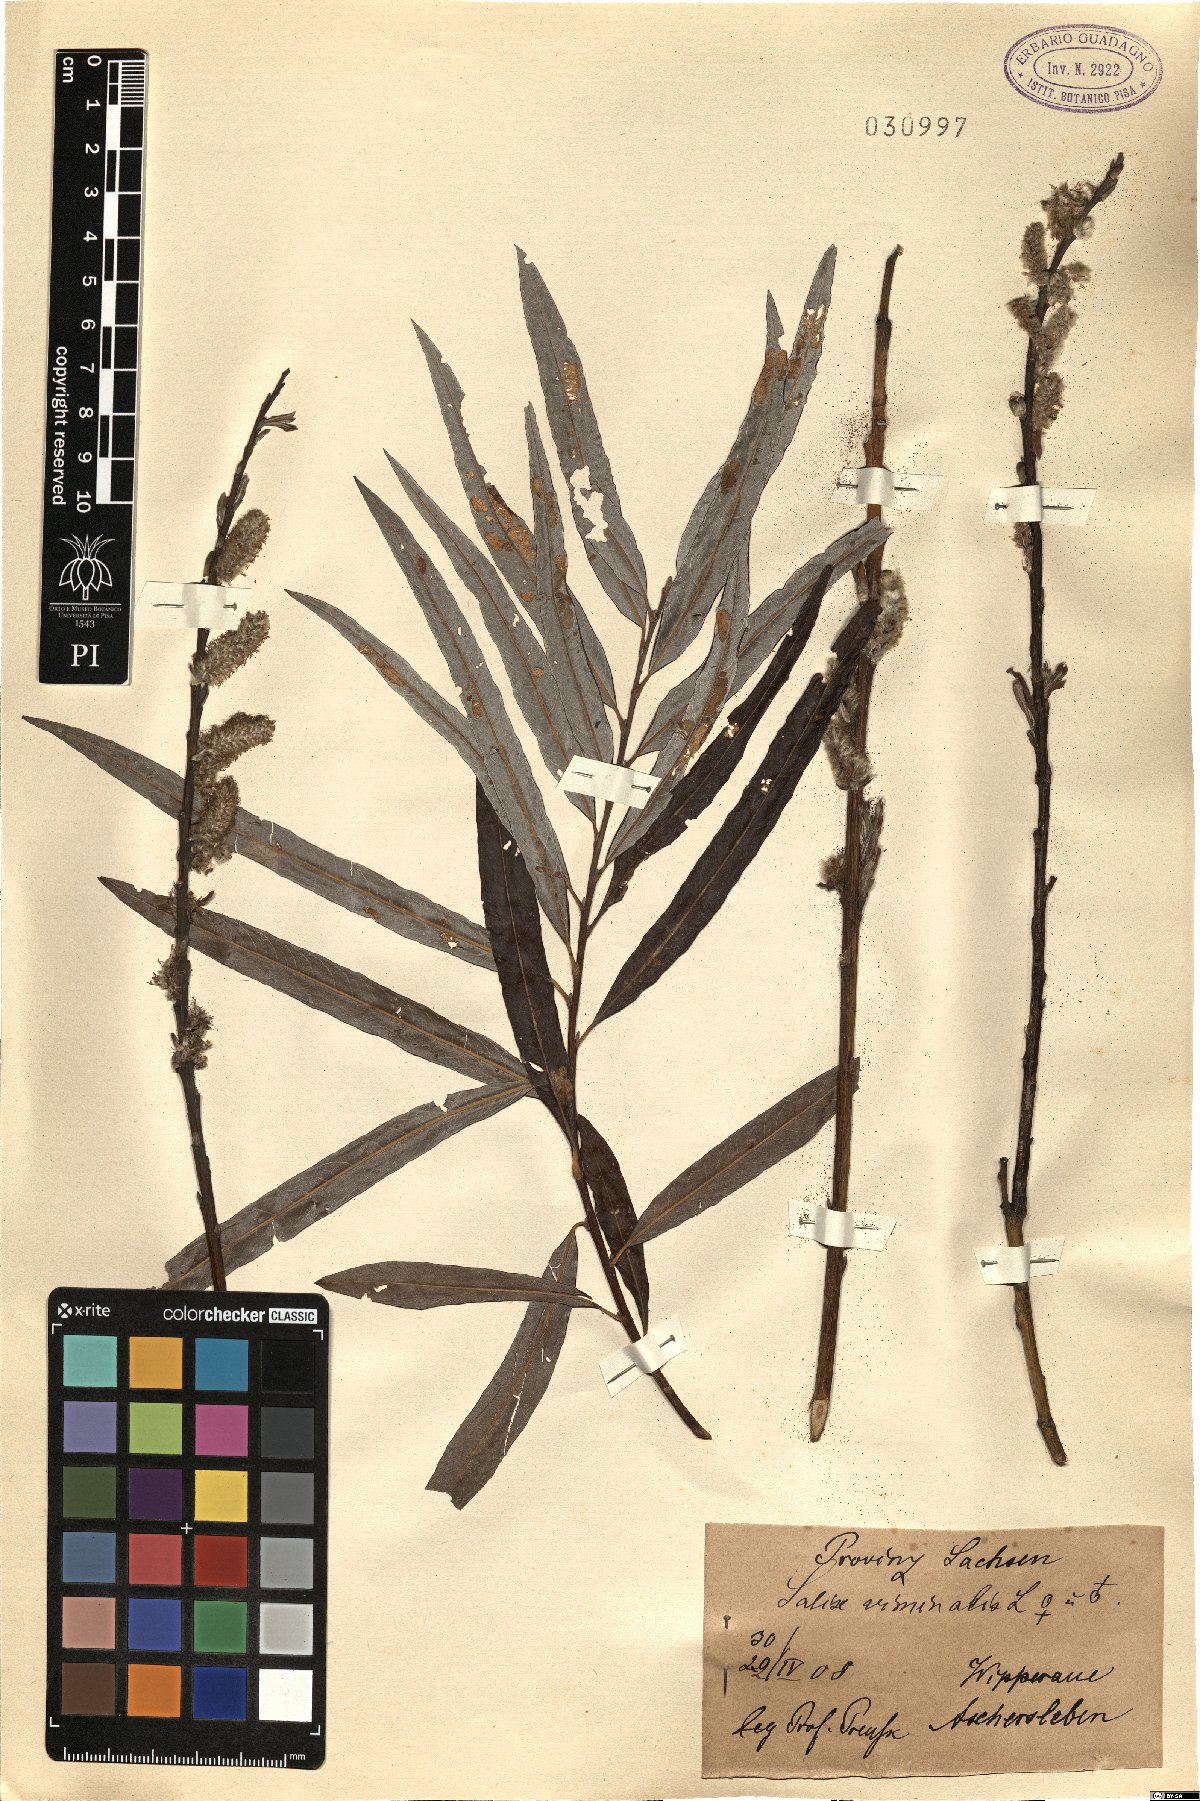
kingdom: Plantae
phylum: Tracheophyta
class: Magnoliopsida
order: Malpighiales
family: Salicaceae
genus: Salix
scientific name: Salix viminalis
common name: Osier
